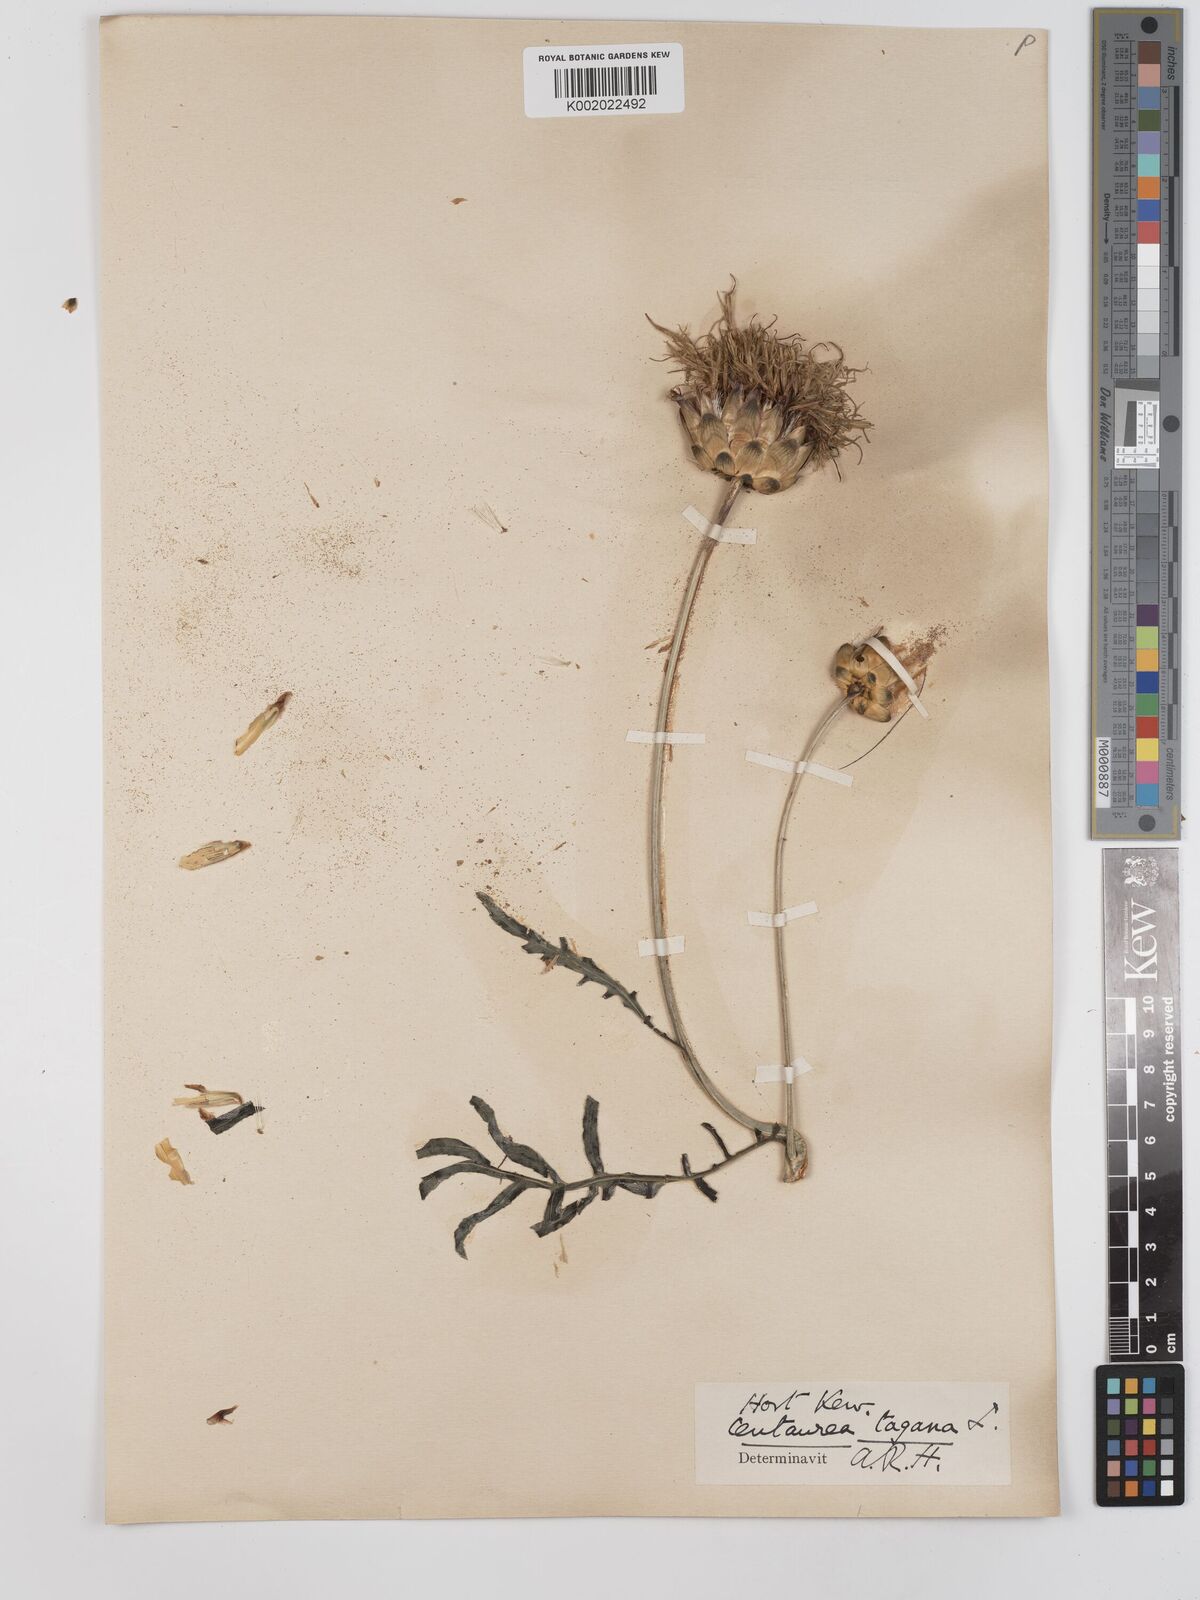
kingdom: Plantae
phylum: Tracheophyta
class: Magnoliopsida
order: Asterales
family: Asteraceae
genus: Rhaponticoides
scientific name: Rhaponticoides africana
